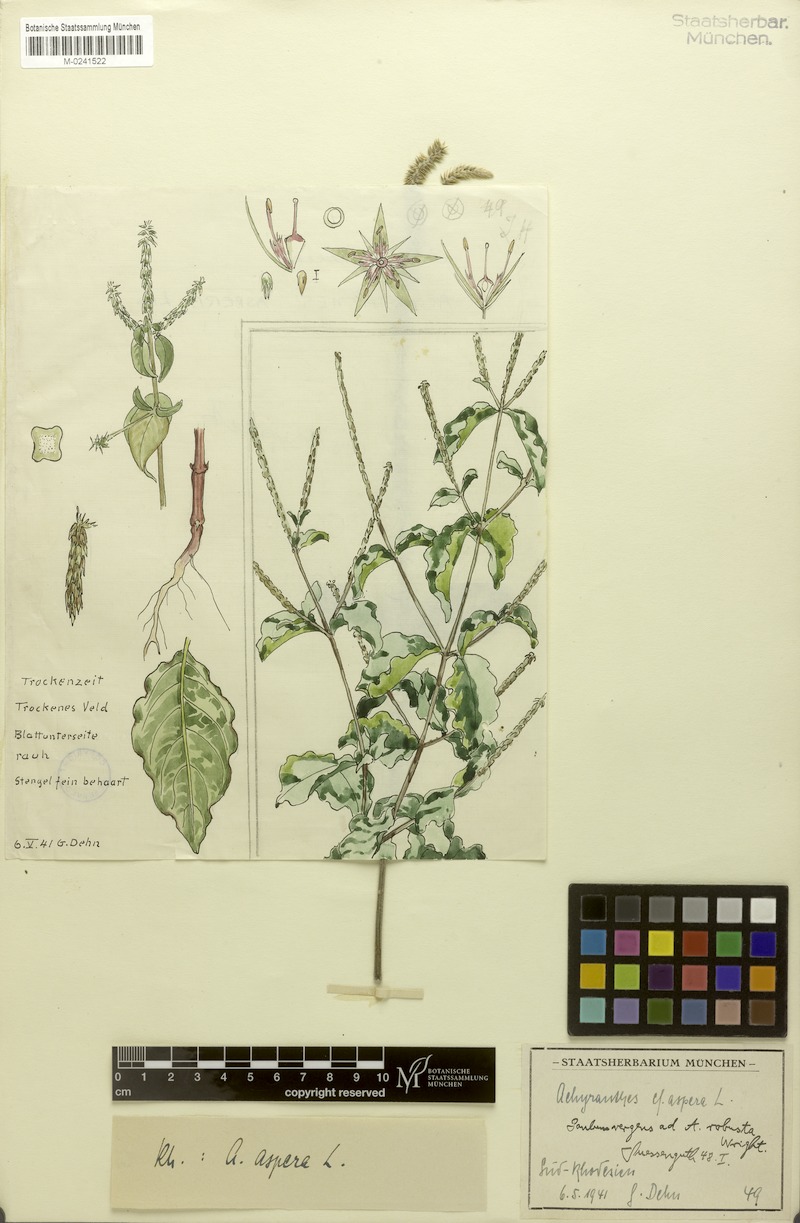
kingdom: Plantae
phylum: Tracheophyta
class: Magnoliopsida
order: Caryophyllales
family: Amaranthaceae
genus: Achyranthes
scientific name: Achyranthes aspera
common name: Devil's horsewhip
